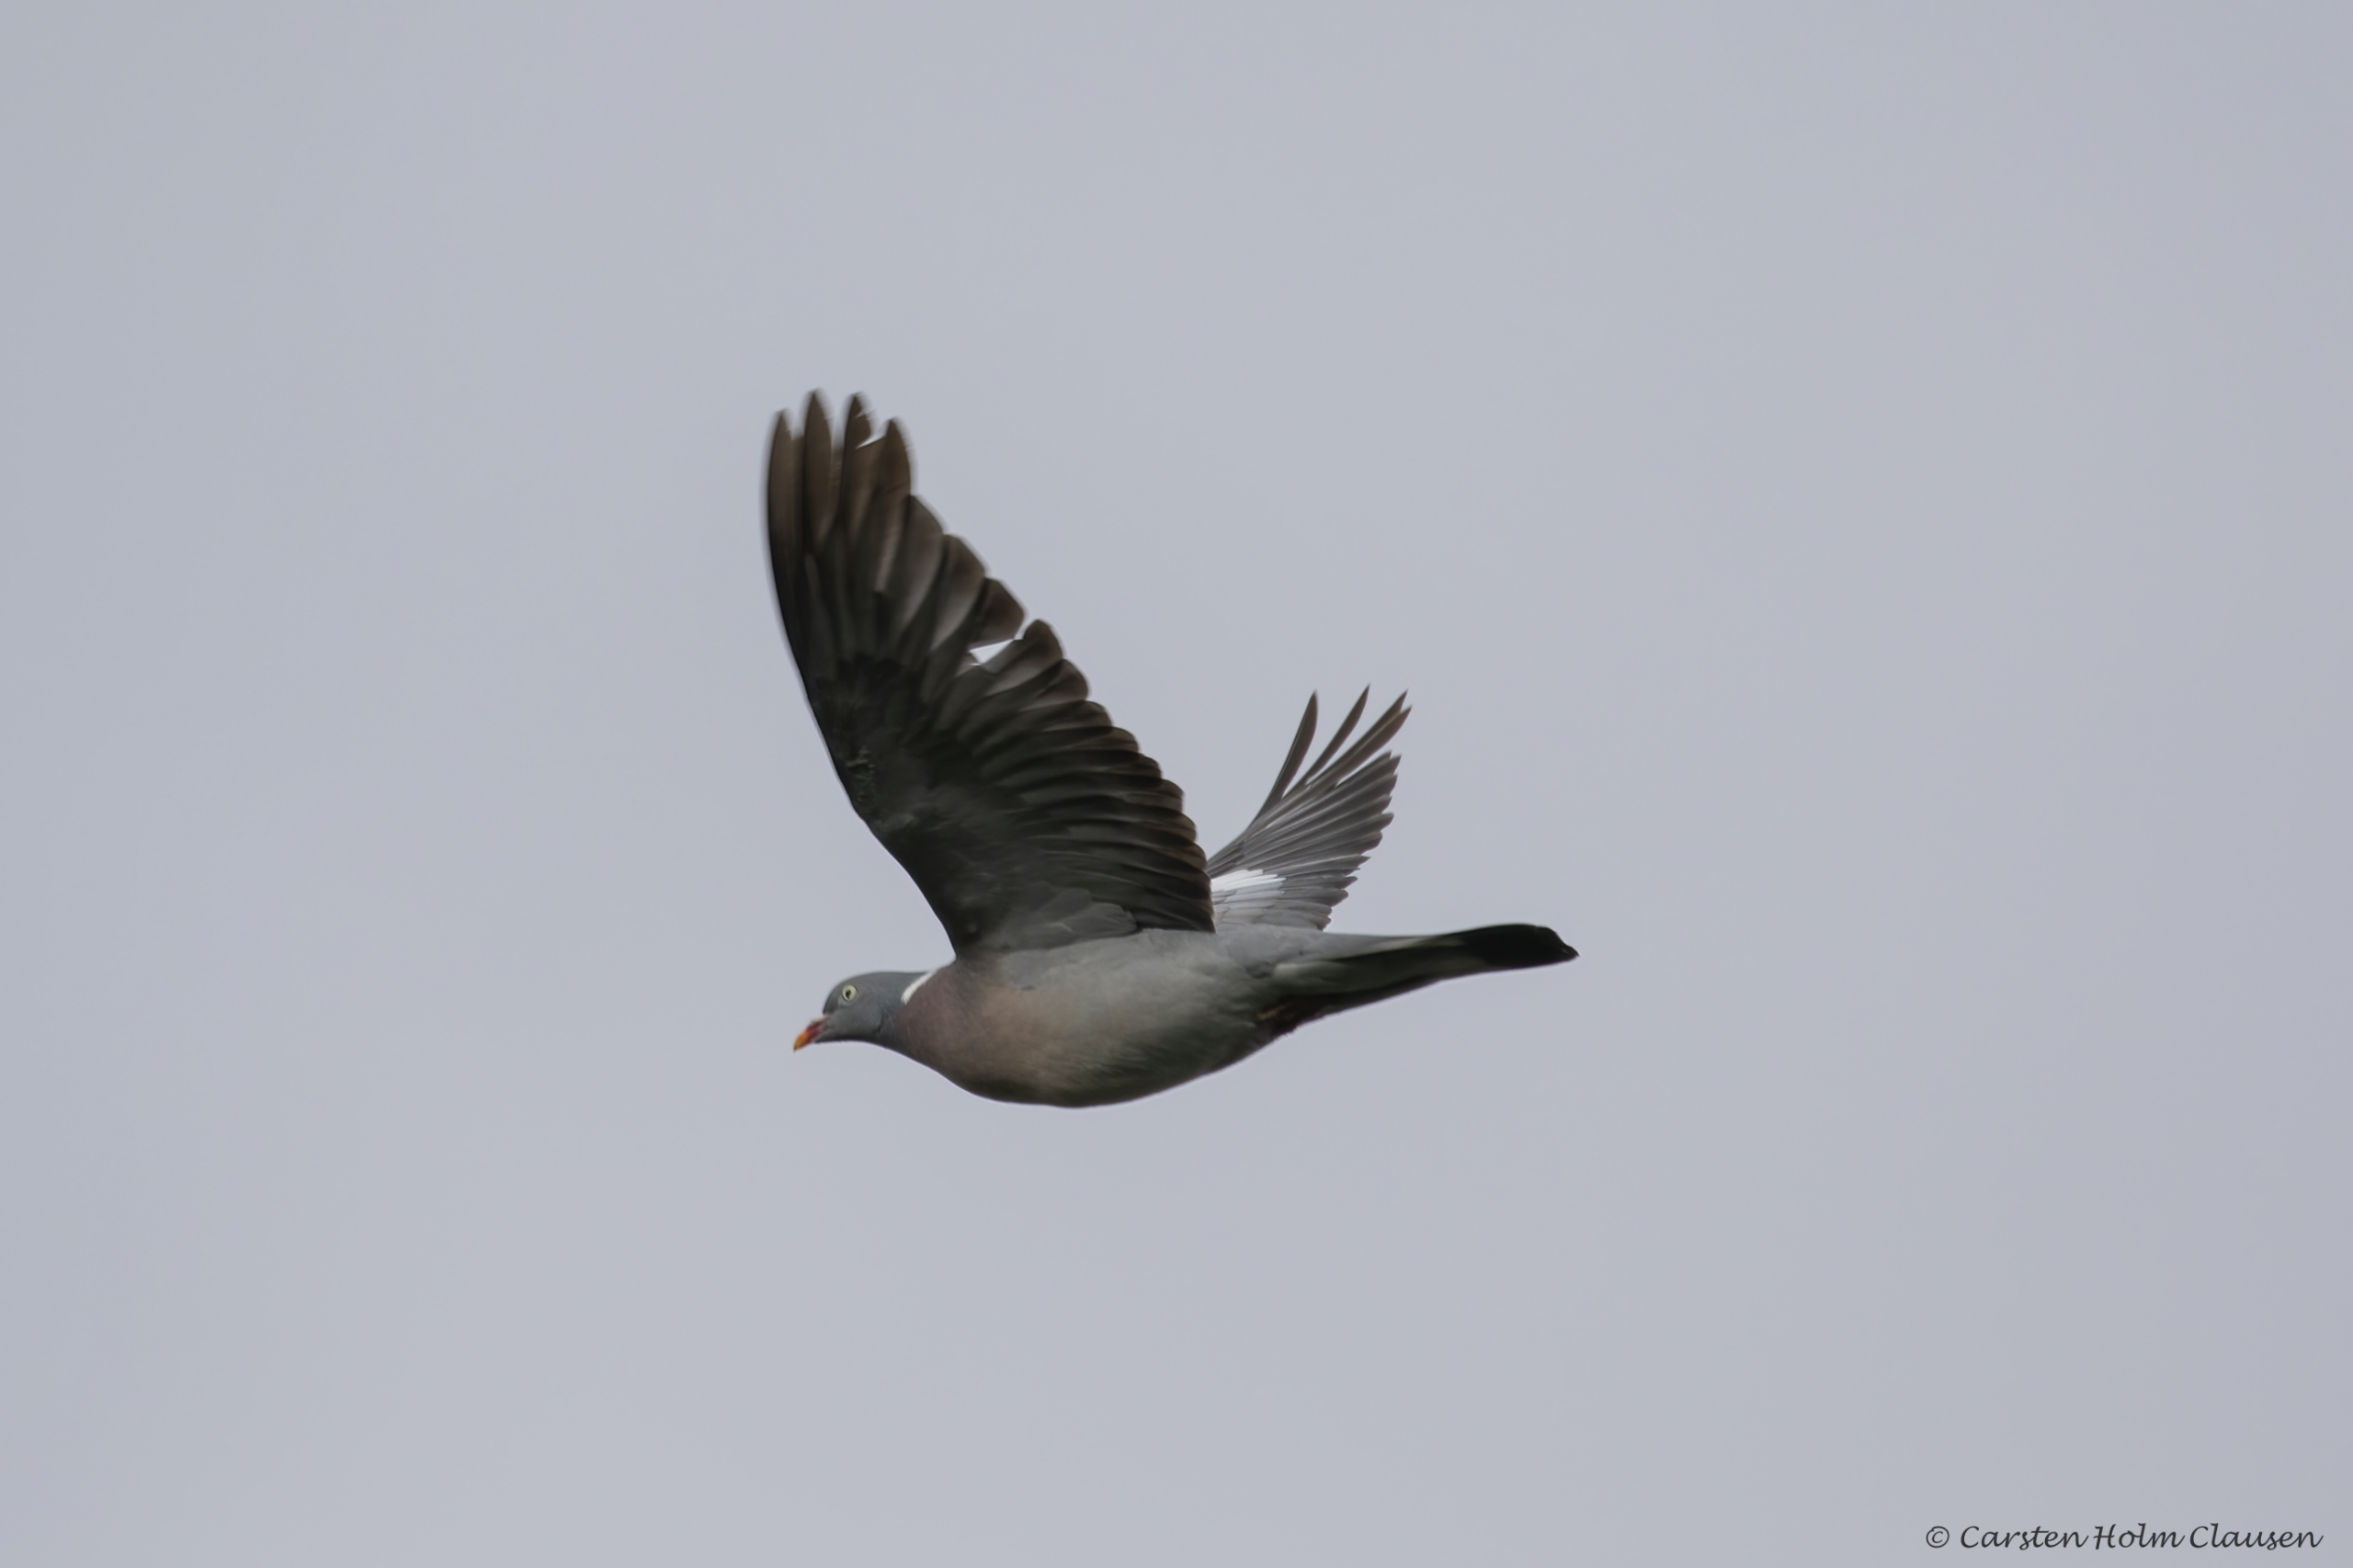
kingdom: Animalia
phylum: Chordata
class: Aves
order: Columbiformes
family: Columbidae
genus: Columba
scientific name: Columba palumbus
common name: Ringdue
